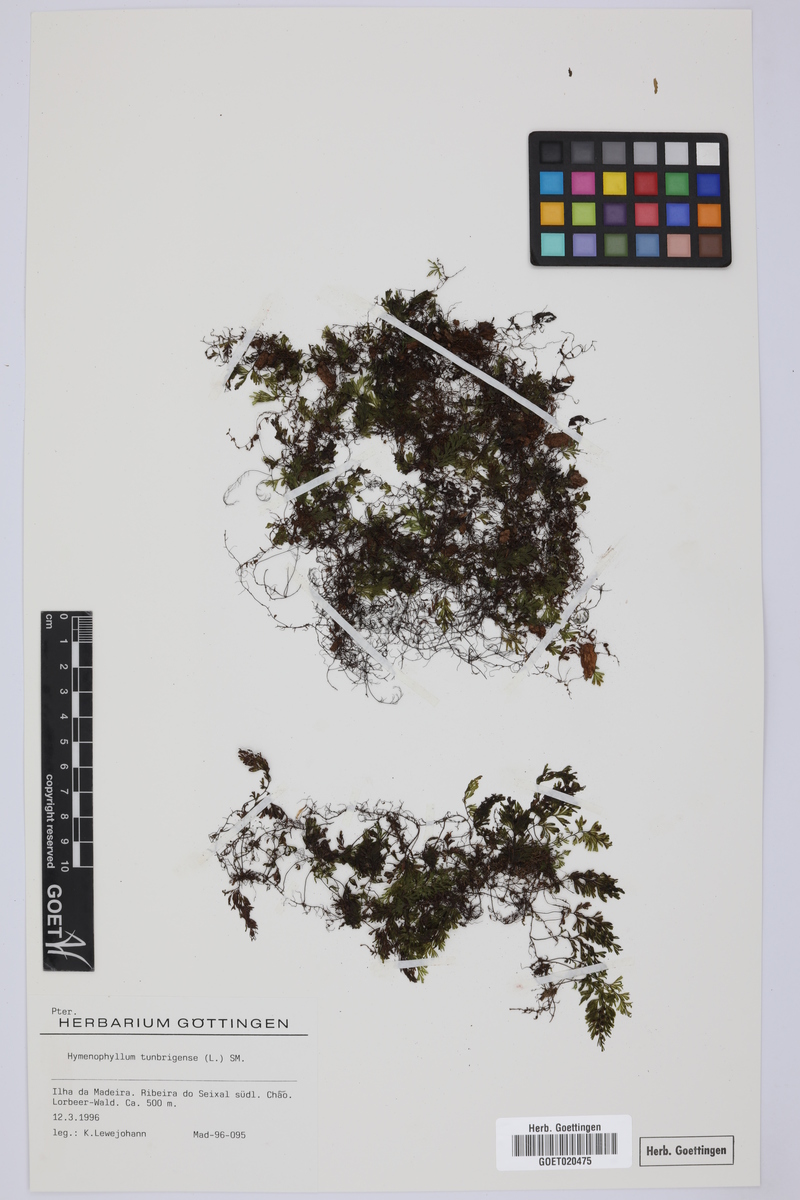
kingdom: Plantae
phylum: Tracheophyta
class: Polypodiopsida
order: Hymenophyllales
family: Hymenophyllaceae
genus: Hymenophyllum
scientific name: Hymenophyllum tunbrigense
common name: Tunbridge filmy fern
